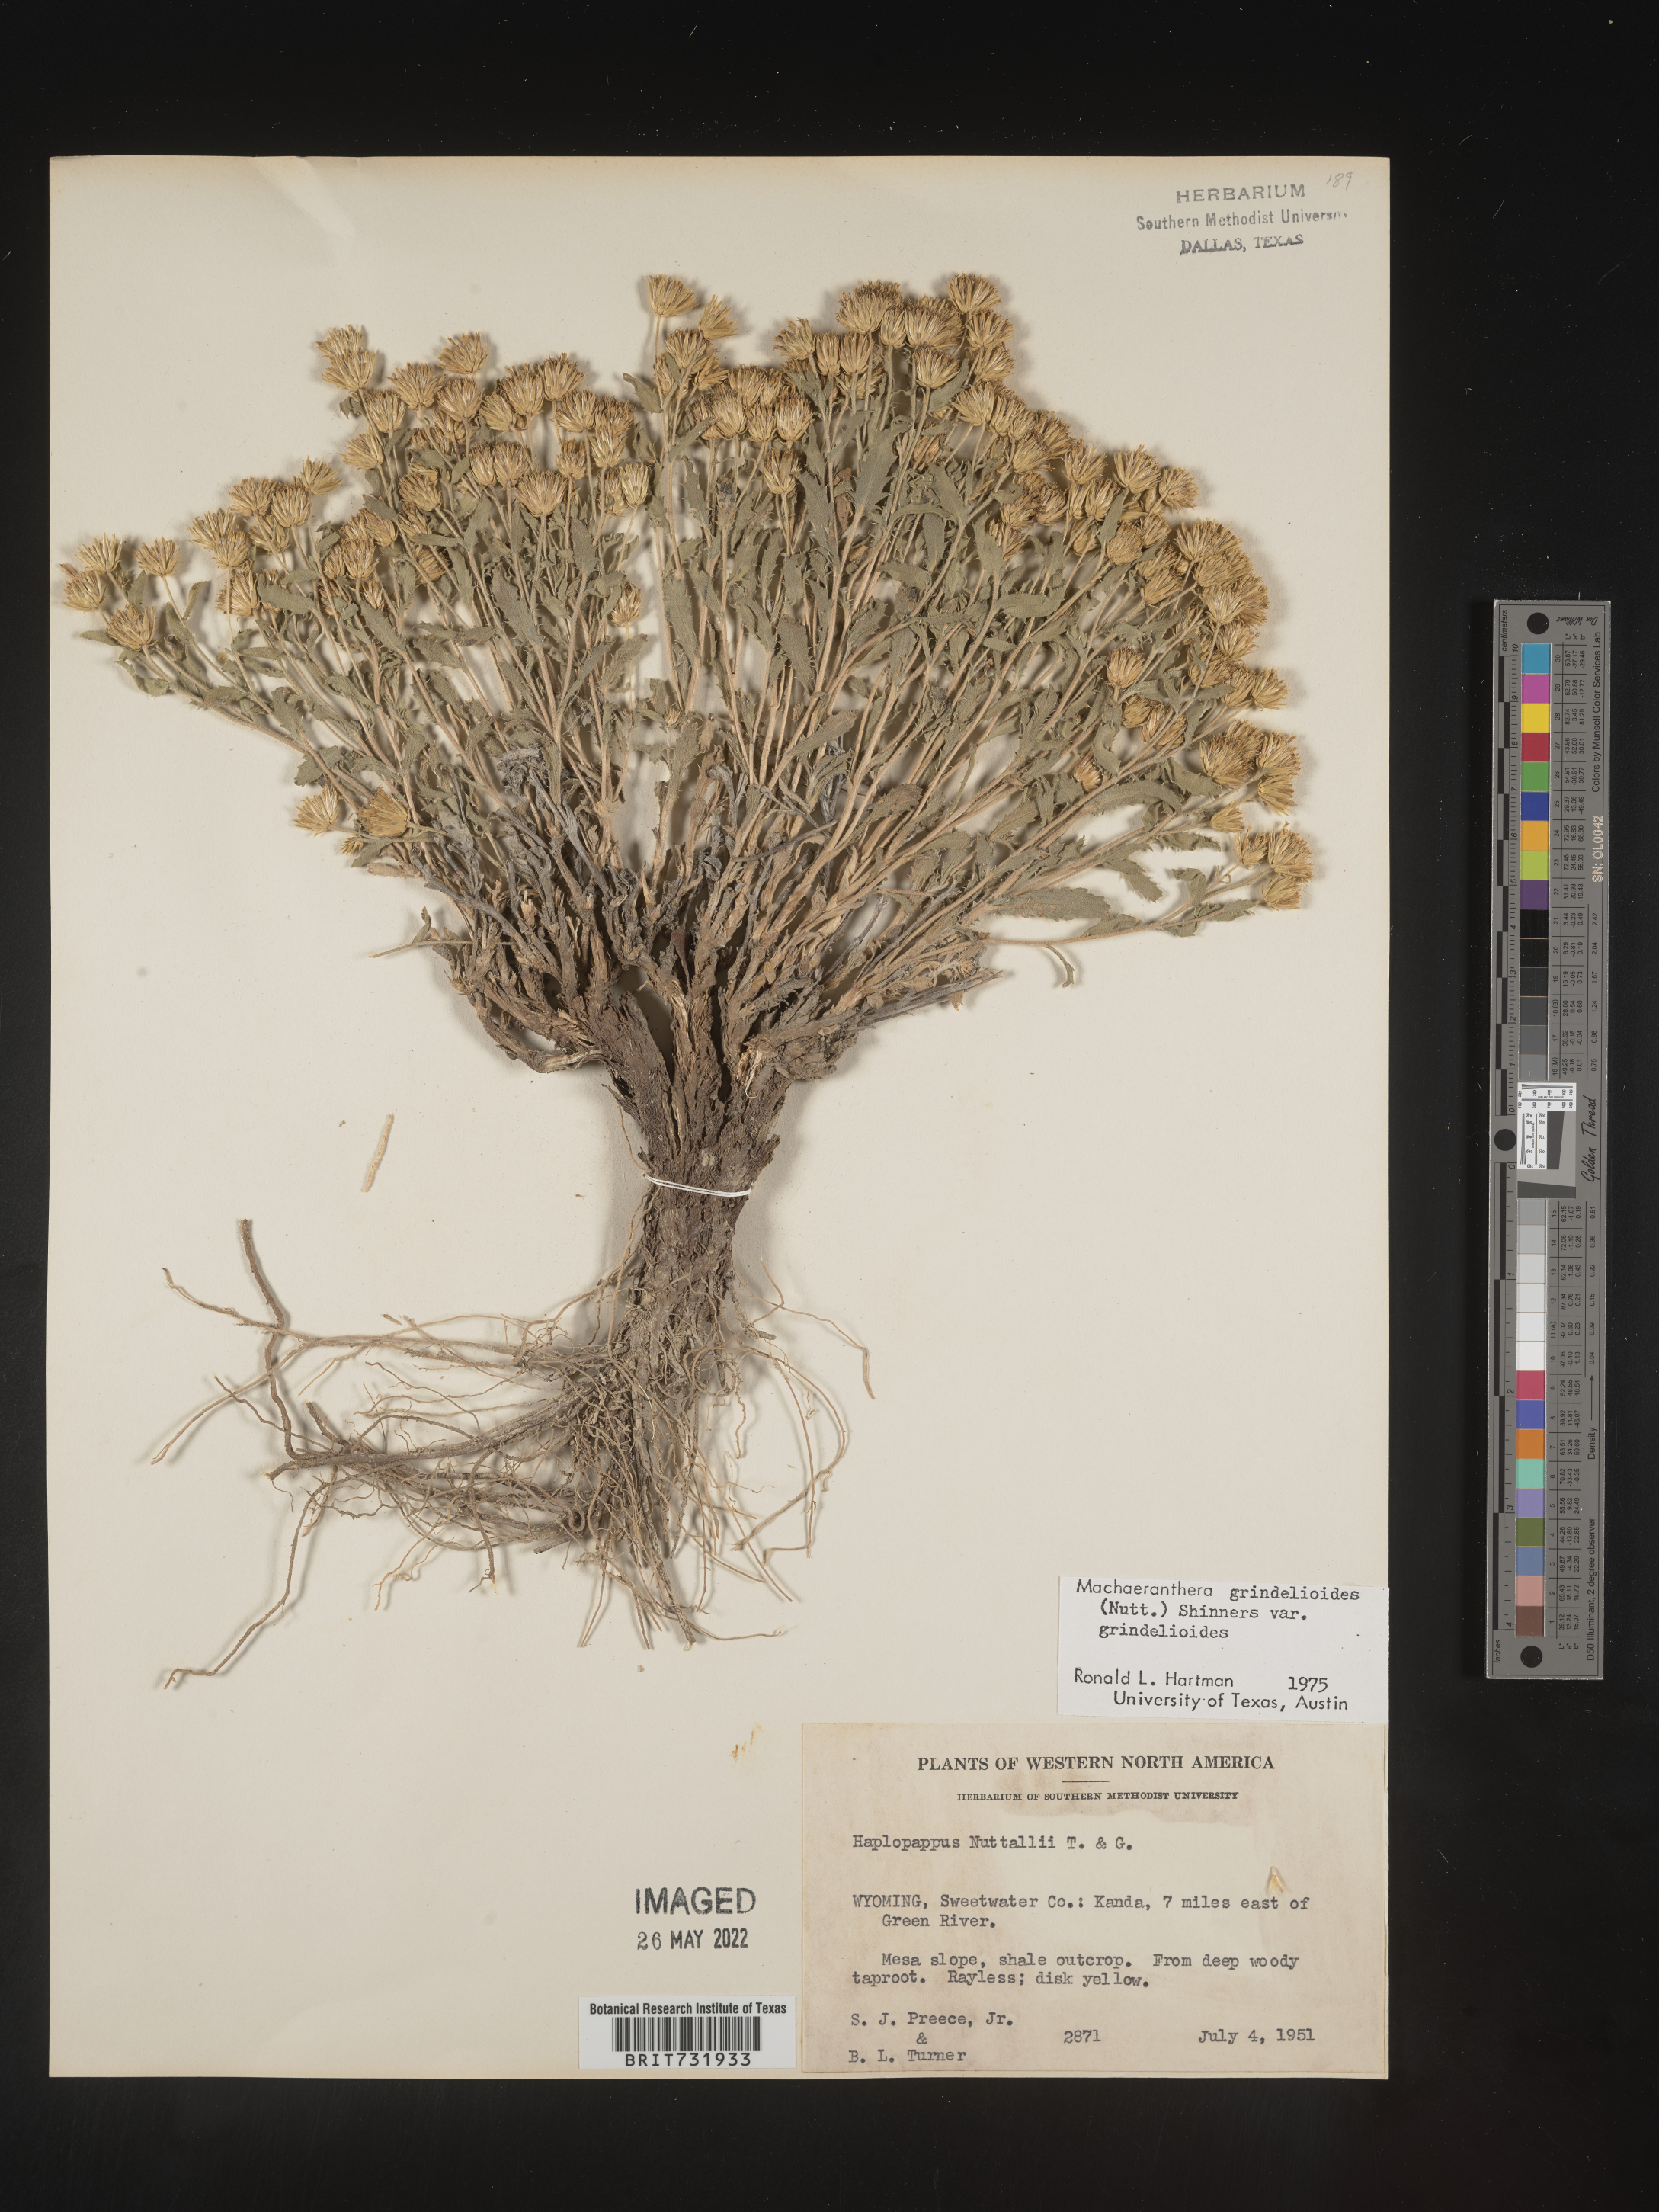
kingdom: Plantae
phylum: Tracheophyta
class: Magnoliopsida
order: Asterales
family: Asteraceae
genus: Xanthisma
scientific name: Xanthisma grindelioides
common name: Goldenweed
